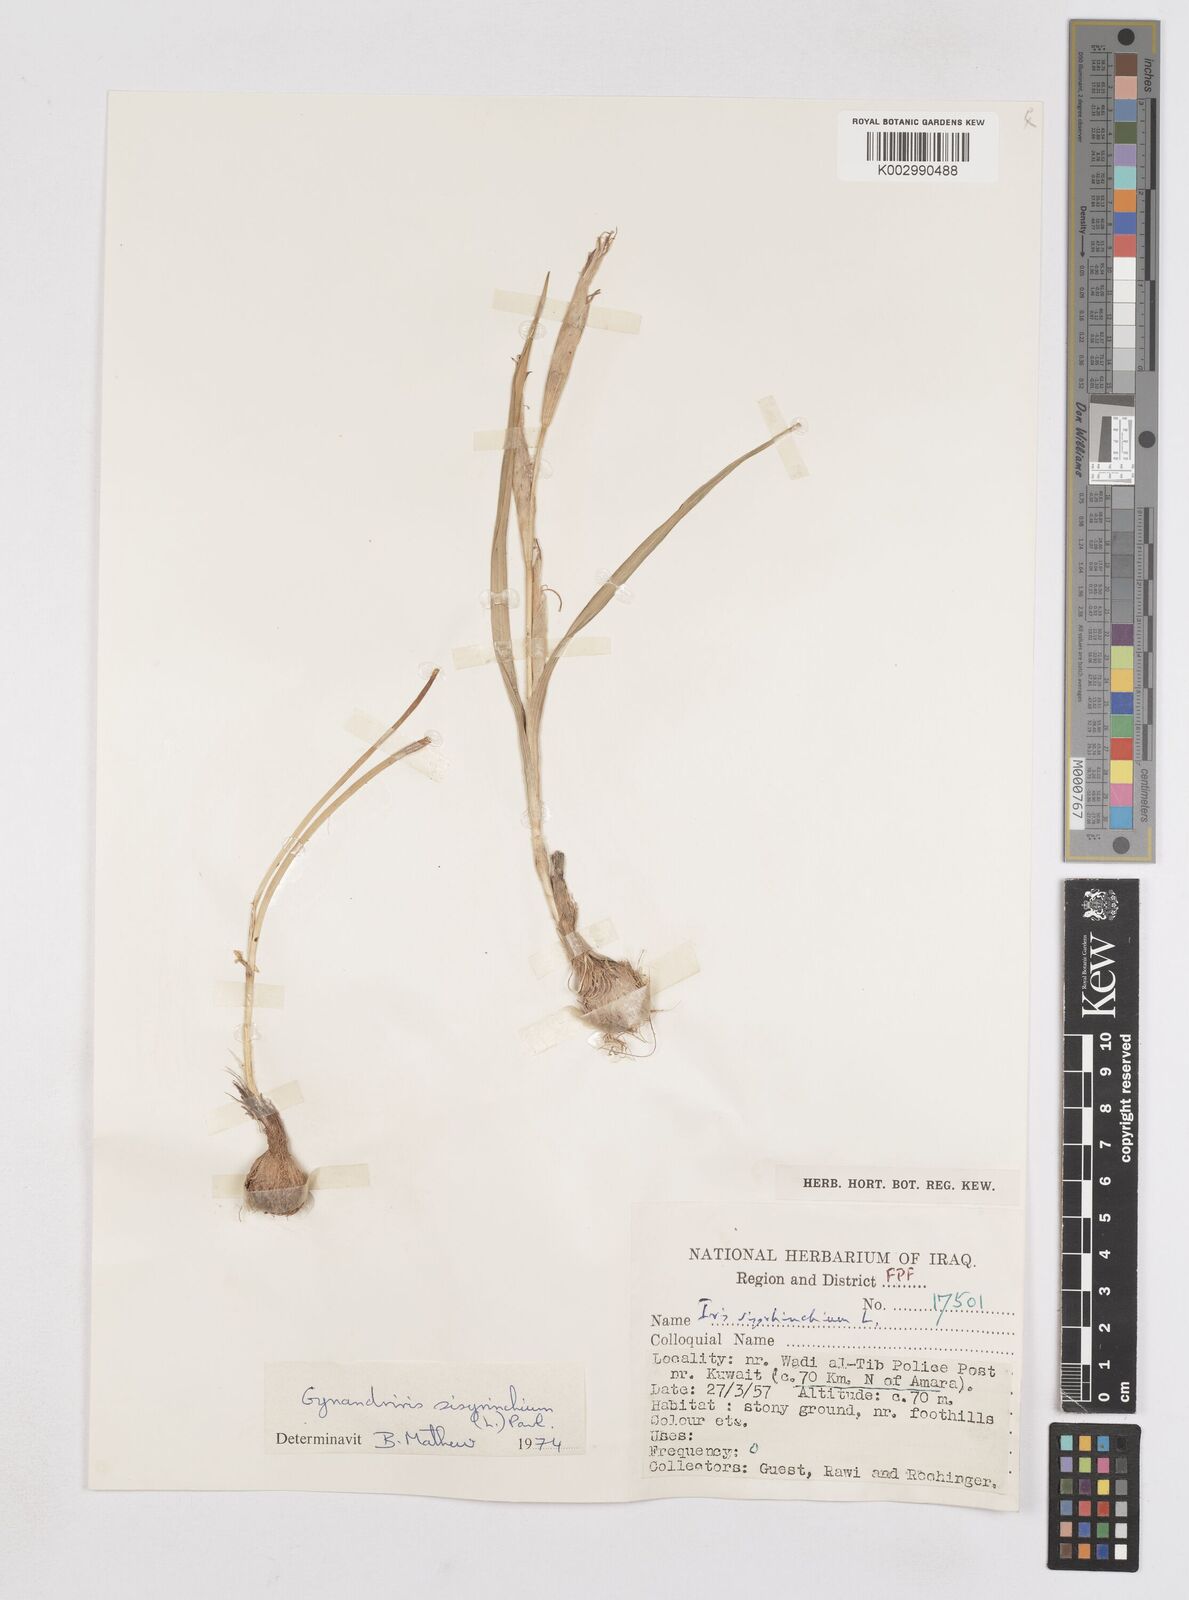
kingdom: Plantae
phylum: Tracheophyta
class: Liliopsida
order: Asparagales
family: Iridaceae
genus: Moraea
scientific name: Moraea sisyrinchium
